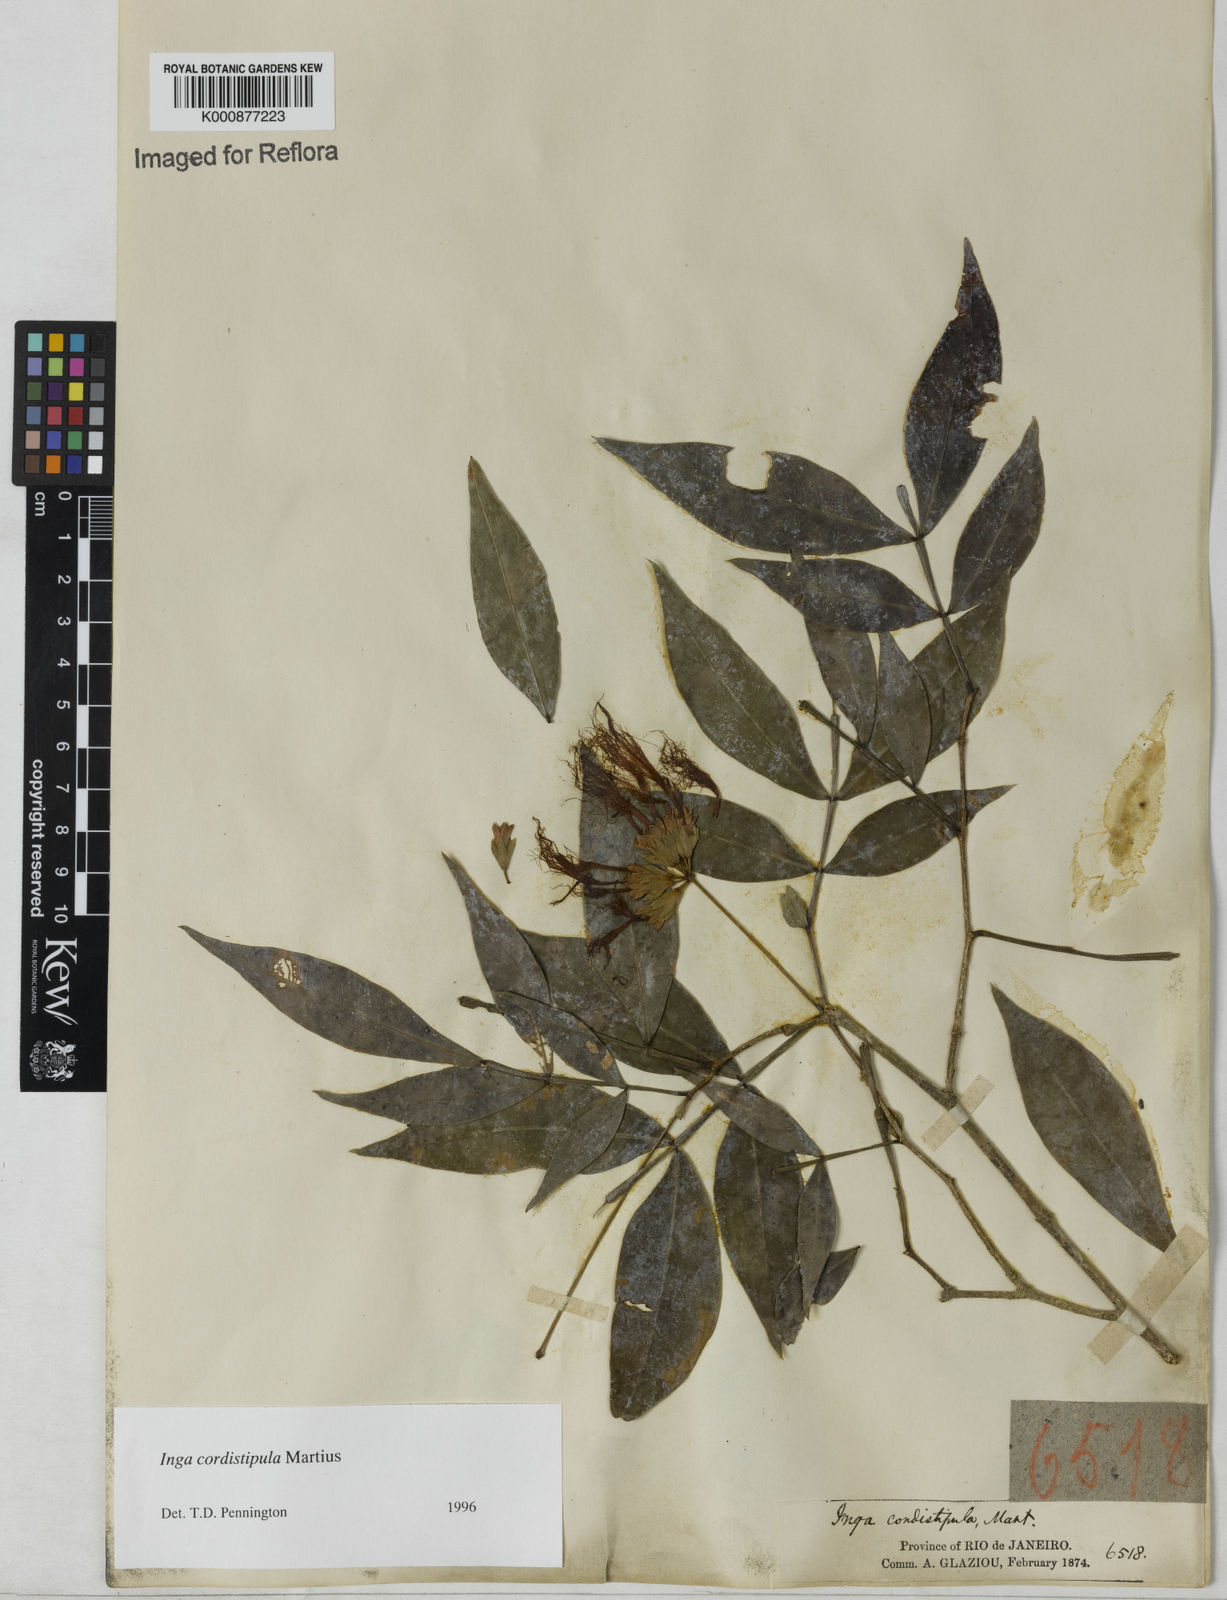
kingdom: Plantae
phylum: Tracheophyta
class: Magnoliopsida
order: Fabales
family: Fabaceae
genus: Inga
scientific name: Inga cordistipula
